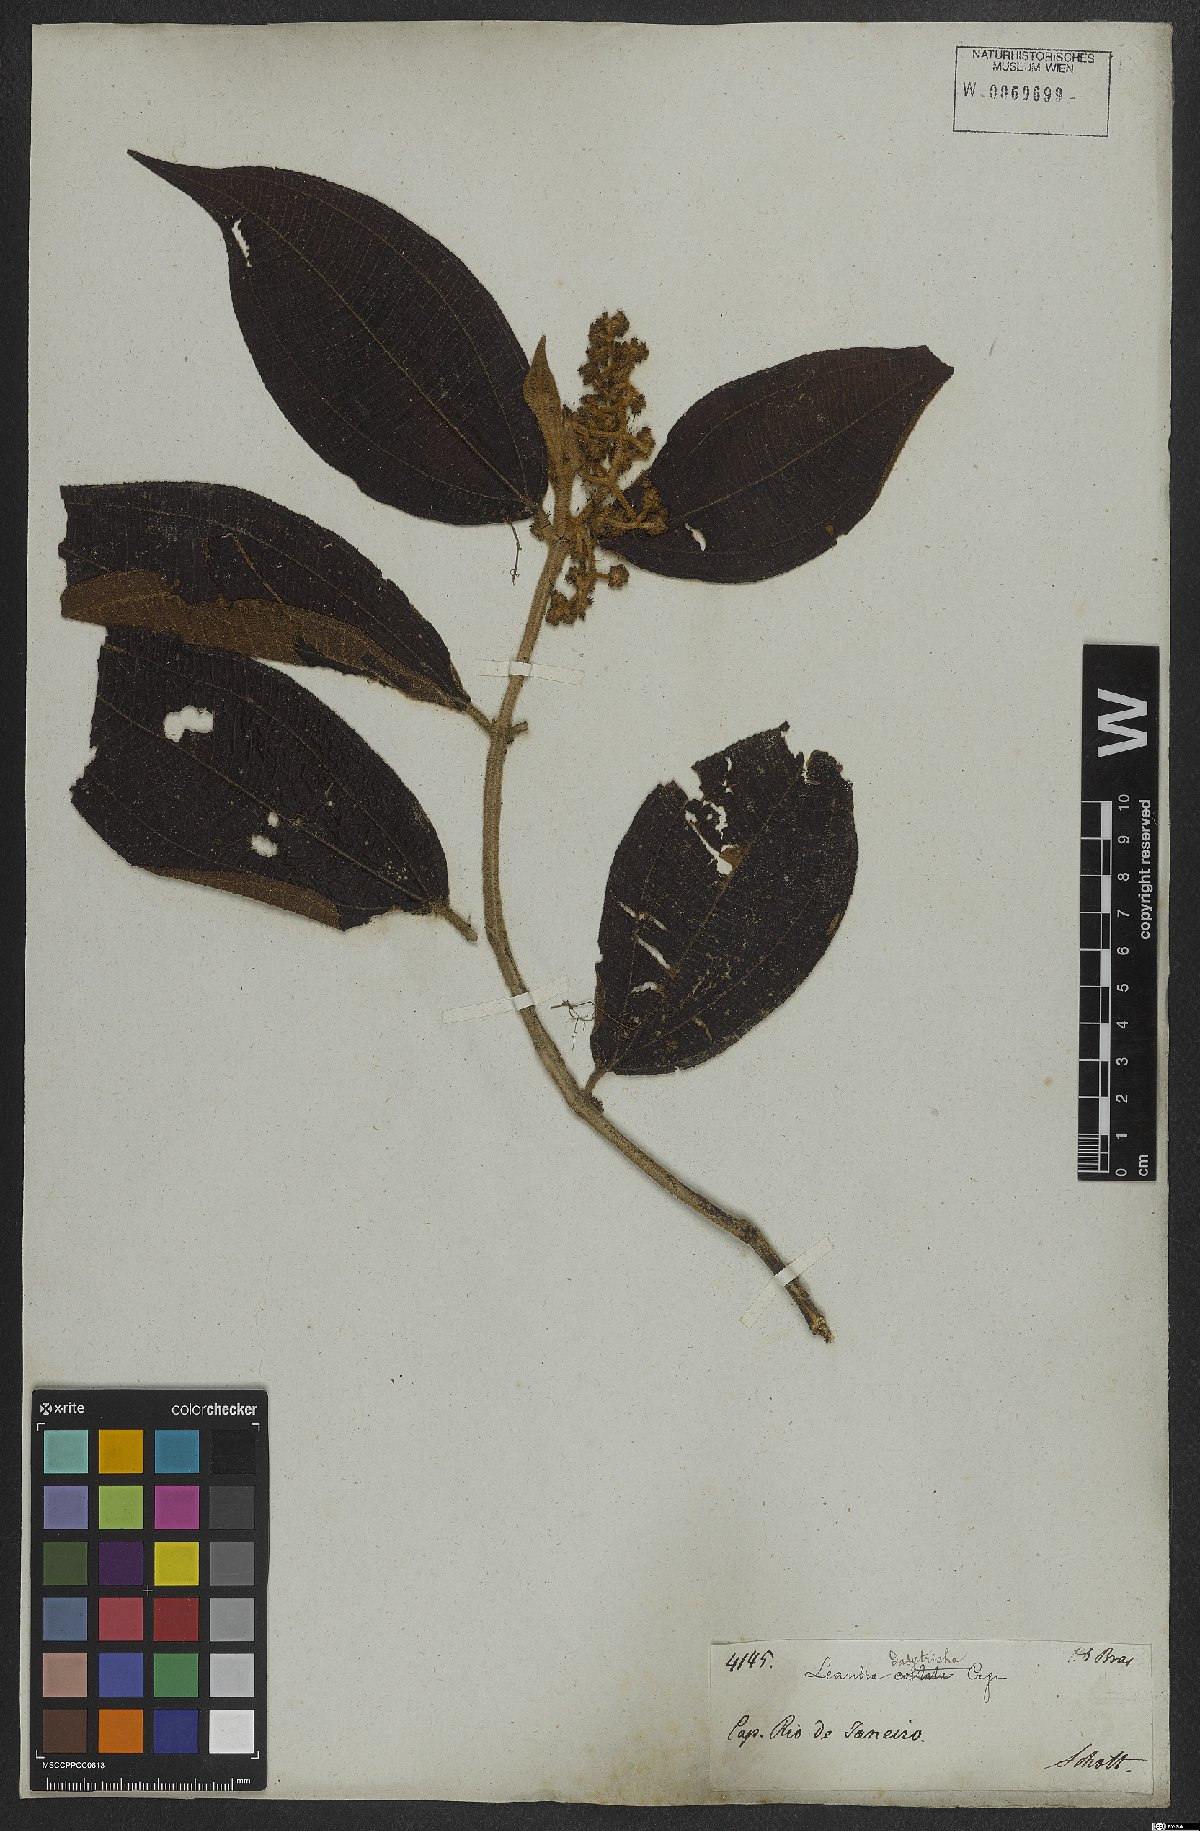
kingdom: Plantae
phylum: Tracheophyta
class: Magnoliopsida
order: Myrtales
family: Melastomataceae
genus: Miconia
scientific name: Miconia dasytricha
